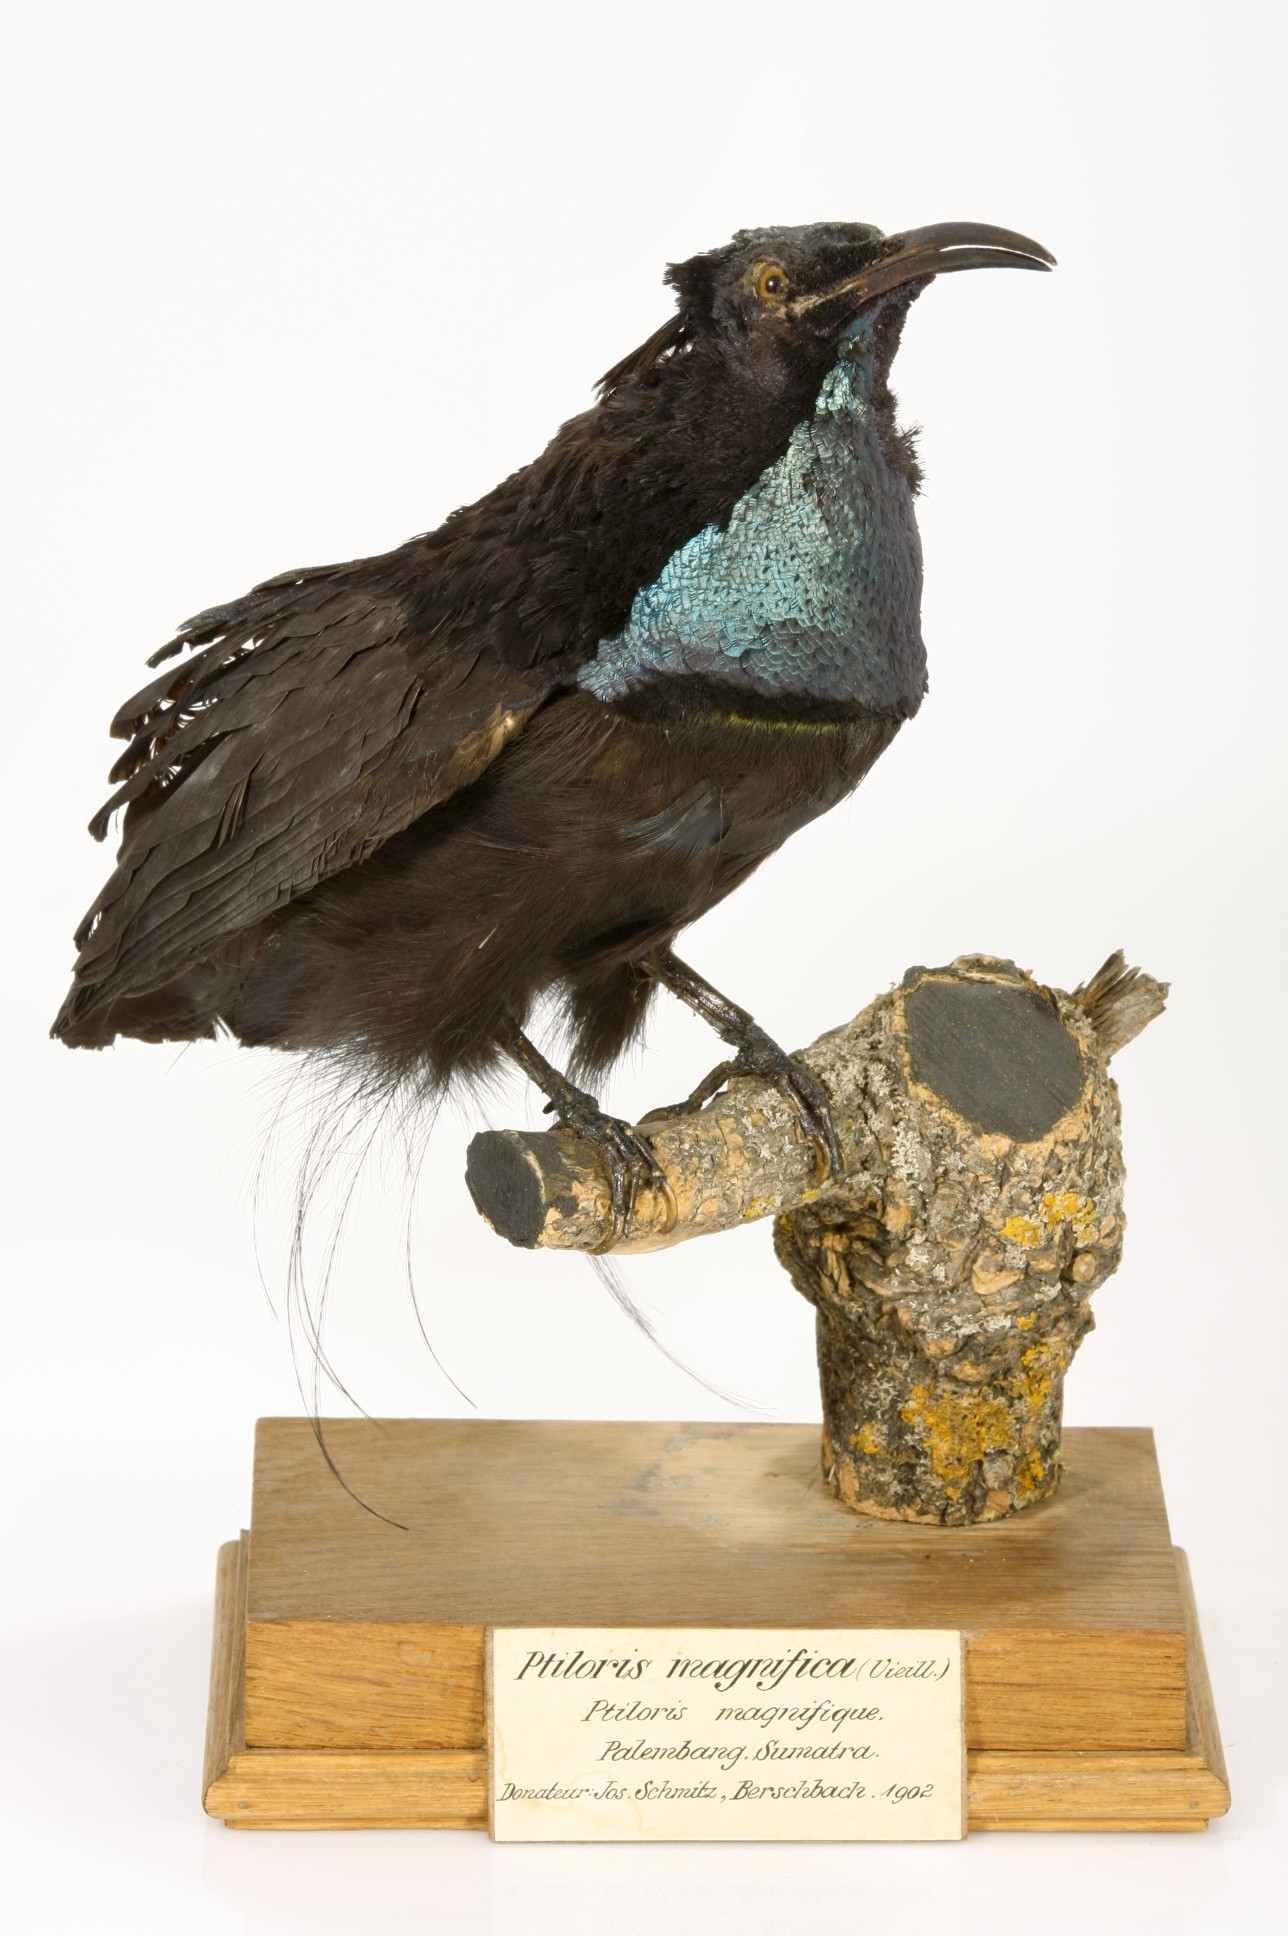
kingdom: Animalia
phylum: Chordata
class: Aves
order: Passeriformes
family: Paradisaeidae
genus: Ptiloris
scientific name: Ptiloris magnificus
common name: Magnificent riflebird
